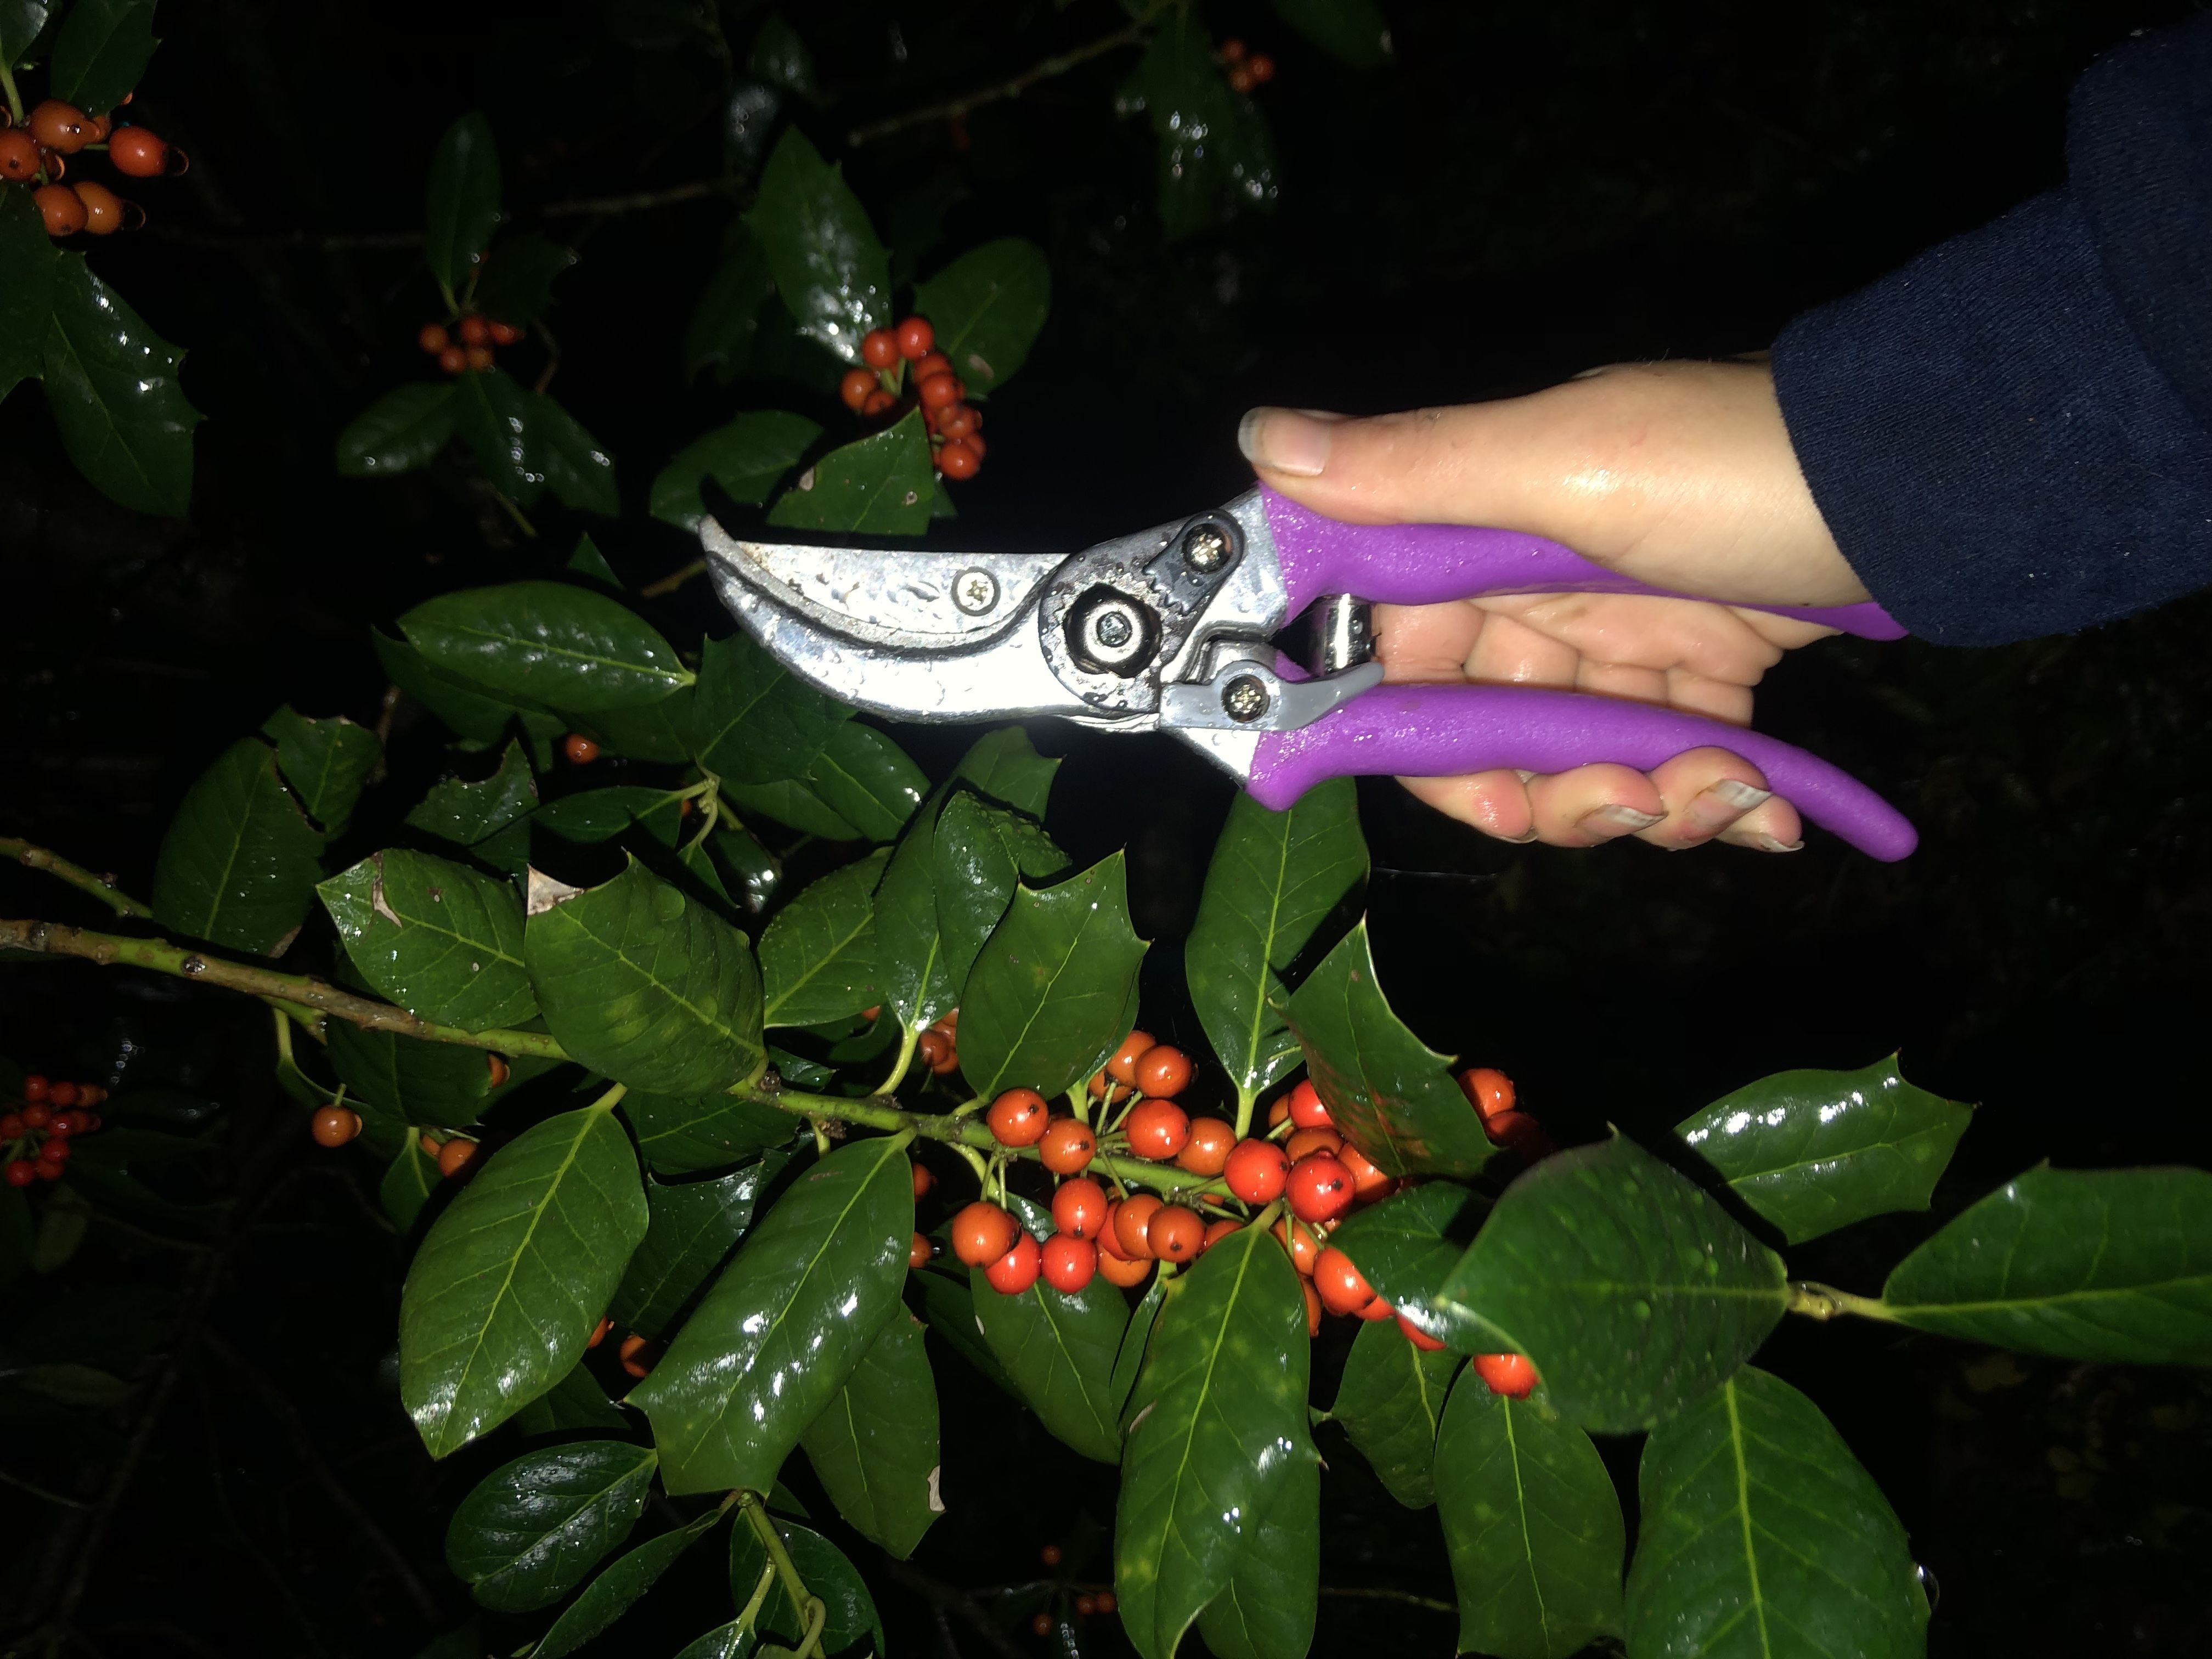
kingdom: Plantae
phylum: Tracheophyta
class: Magnoliopsida
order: Aquifoliales
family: Aquifoliaceae
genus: Ilex
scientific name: Ilex opaca
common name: American Holly
